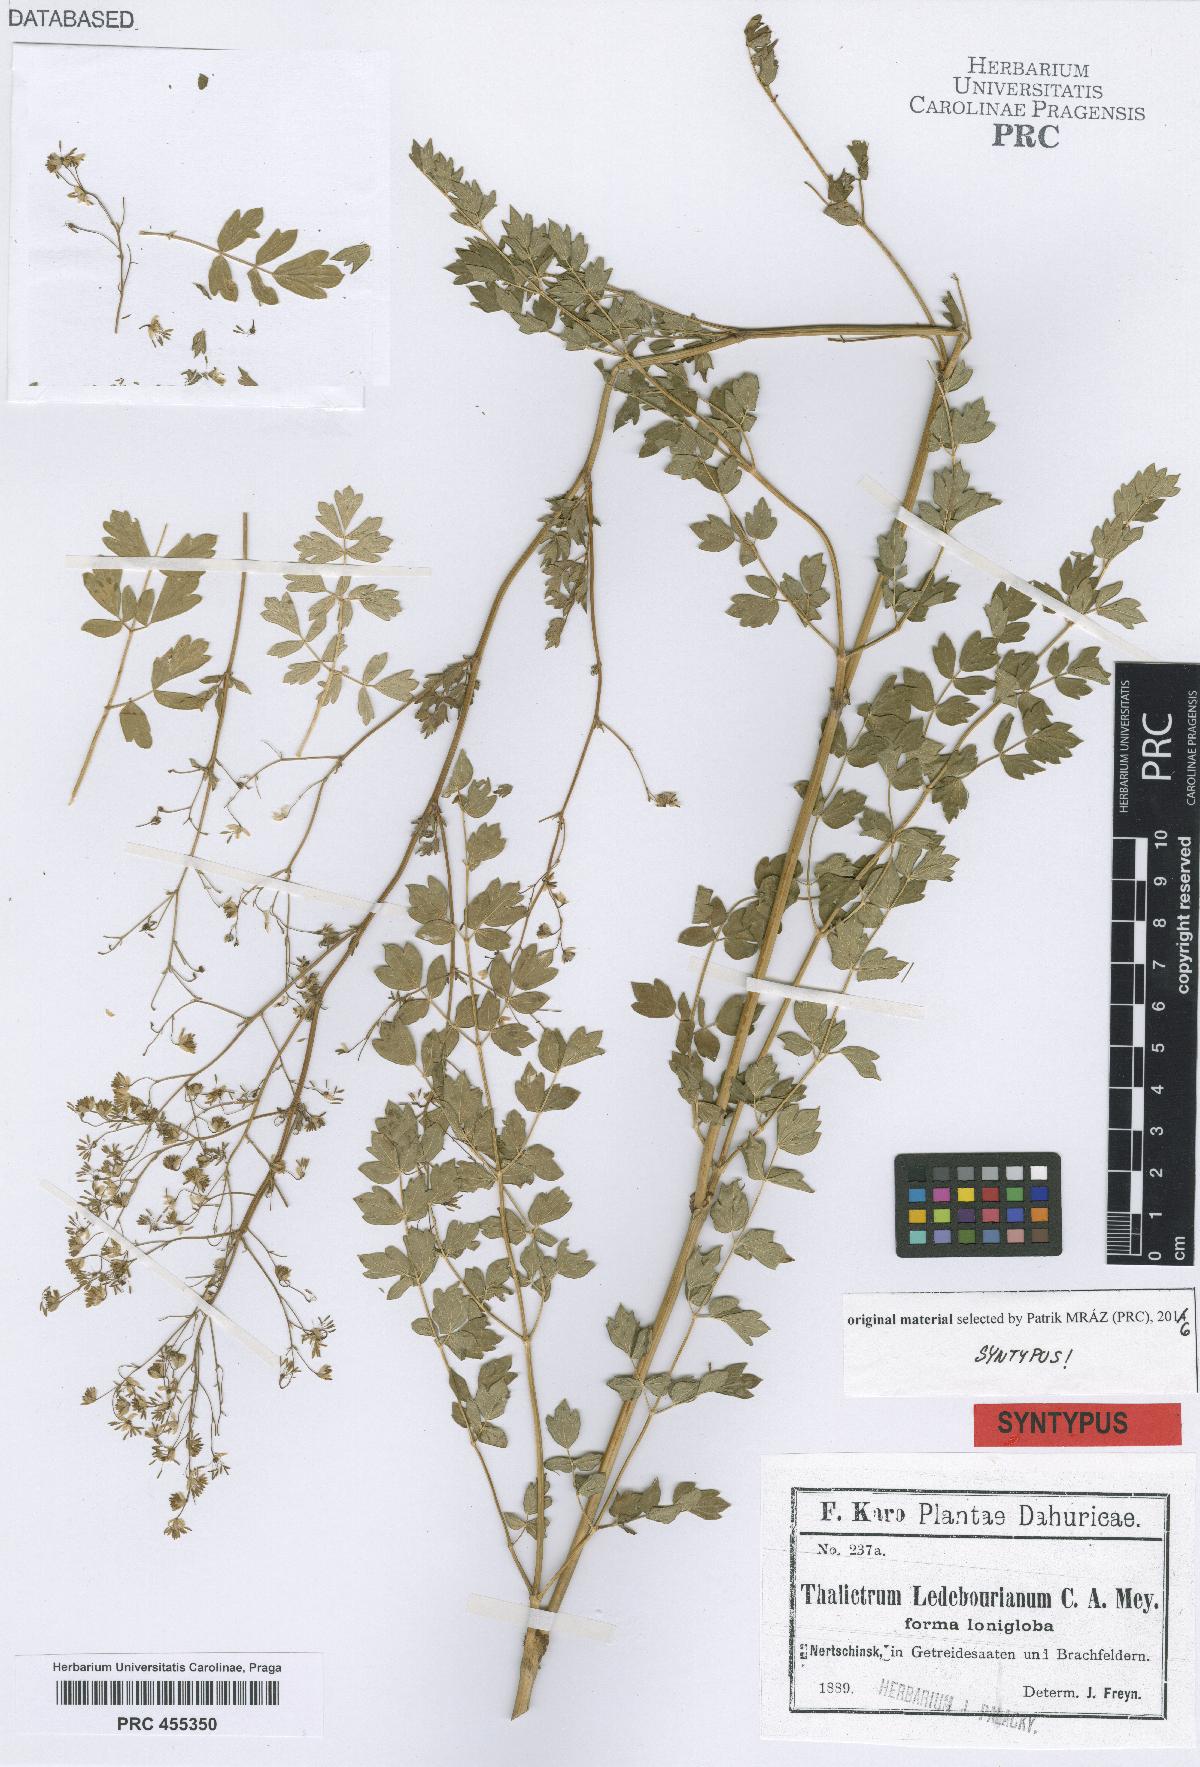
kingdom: Plantae
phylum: Tracheophyta
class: Magnoliopsida
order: Ranunculales
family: Ranunculaceae
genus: Thalictrum
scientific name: Thalictrum squarrosum
